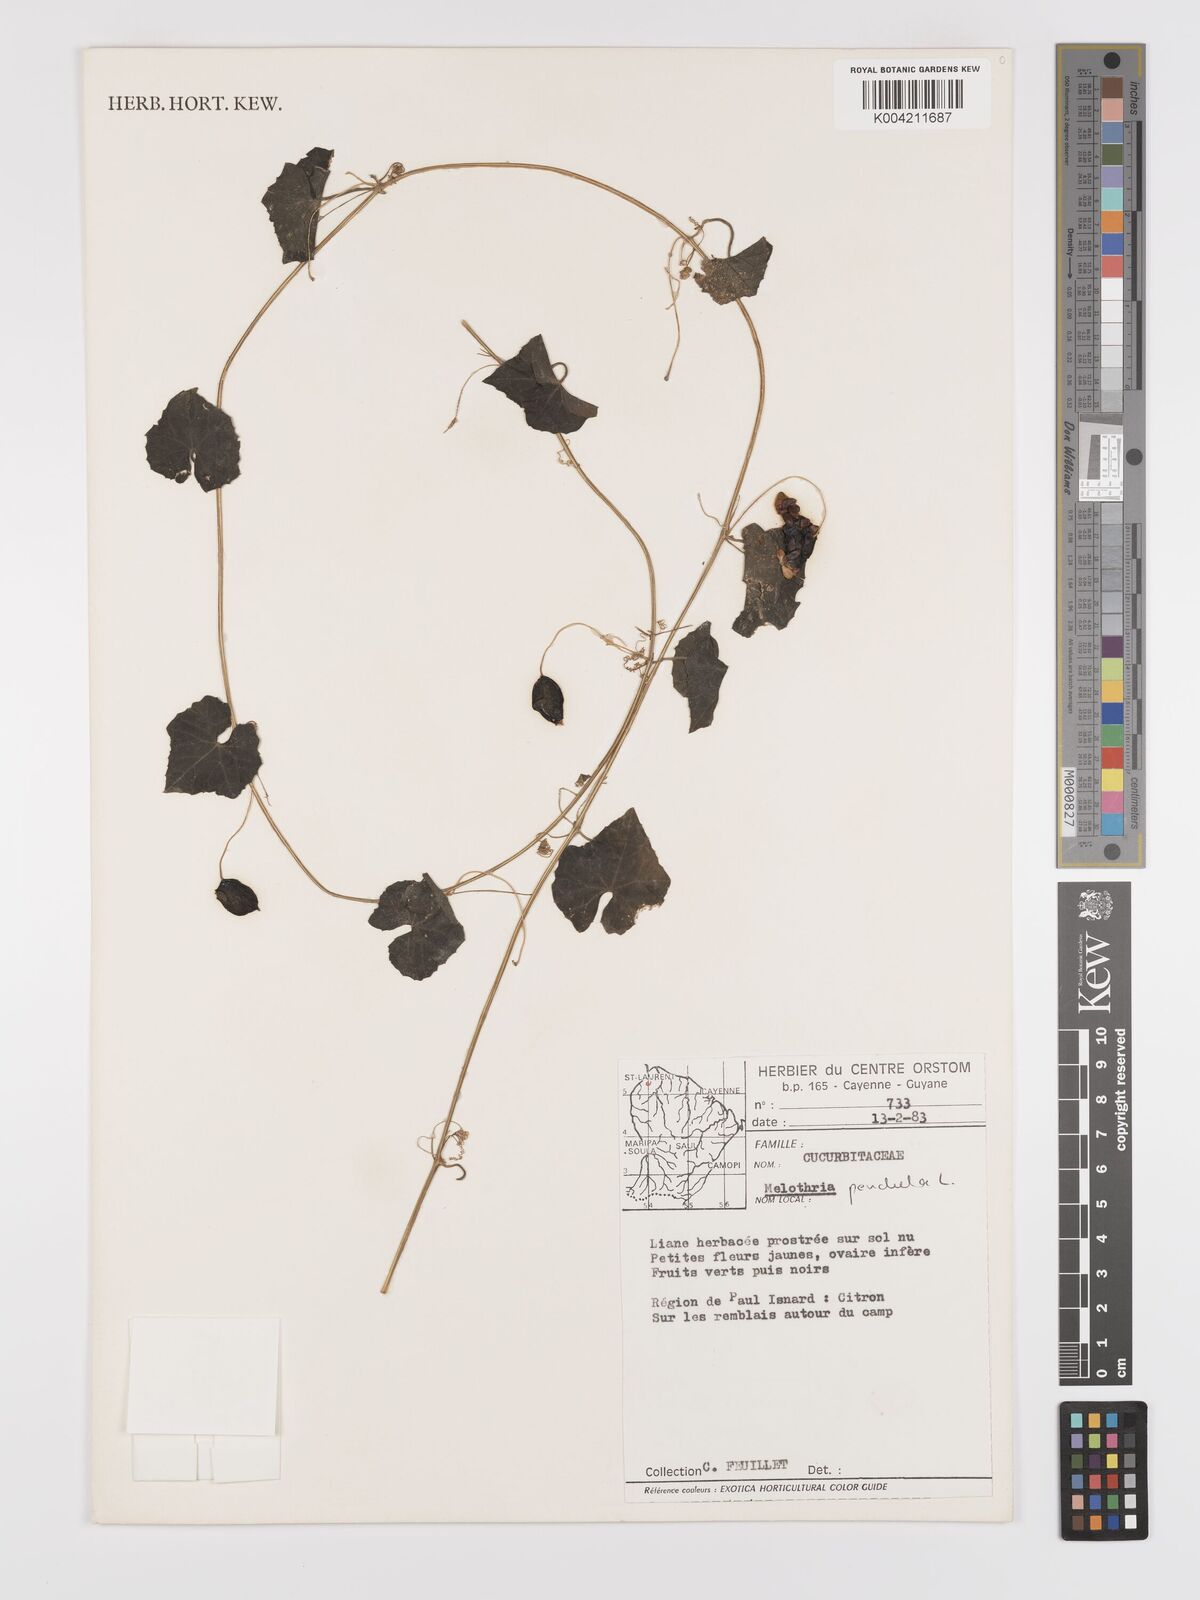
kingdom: Plantae
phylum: Tracheophyta
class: Magnoliopsida
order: Cucurbitales
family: Cucurbitaceae
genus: Melothria
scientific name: Melothria pendula
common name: Creeping-cucumber
